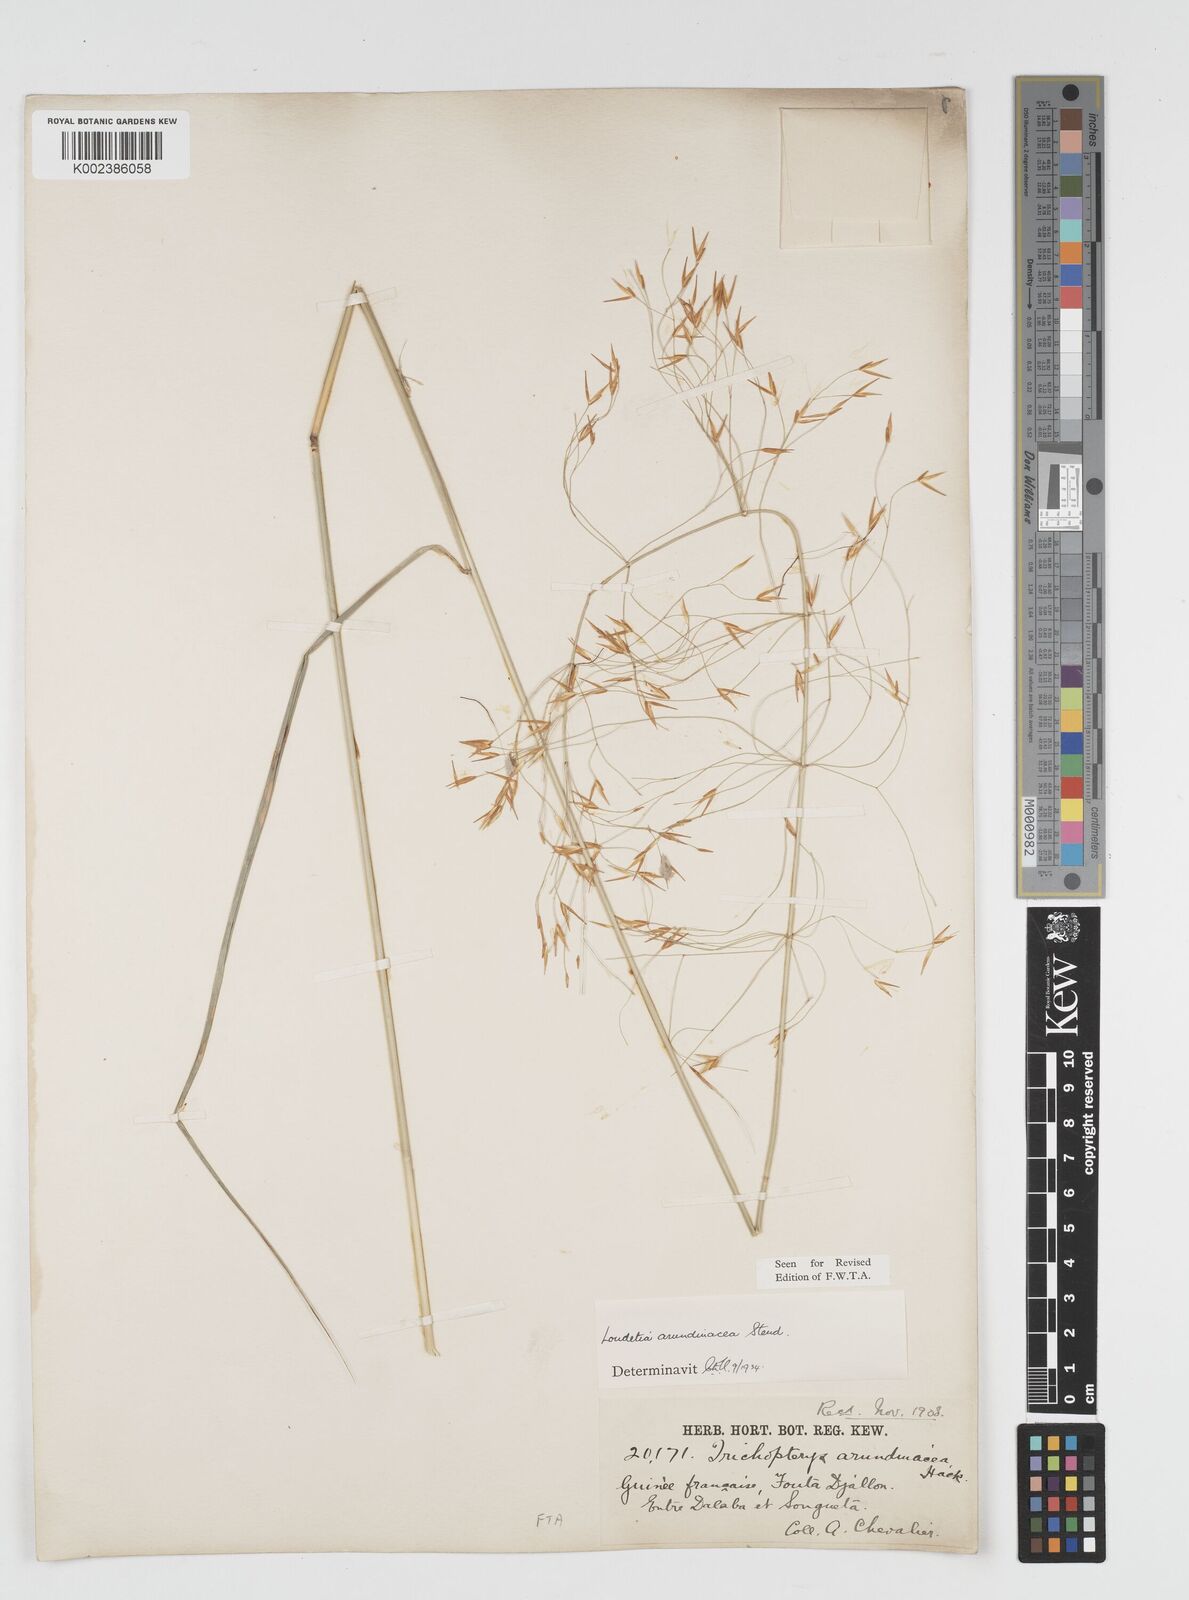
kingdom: Plantae
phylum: Tracheophyta
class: Liliopsida
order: Poales
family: Poaceae
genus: Loudetia
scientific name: Loudetia arundinacea
